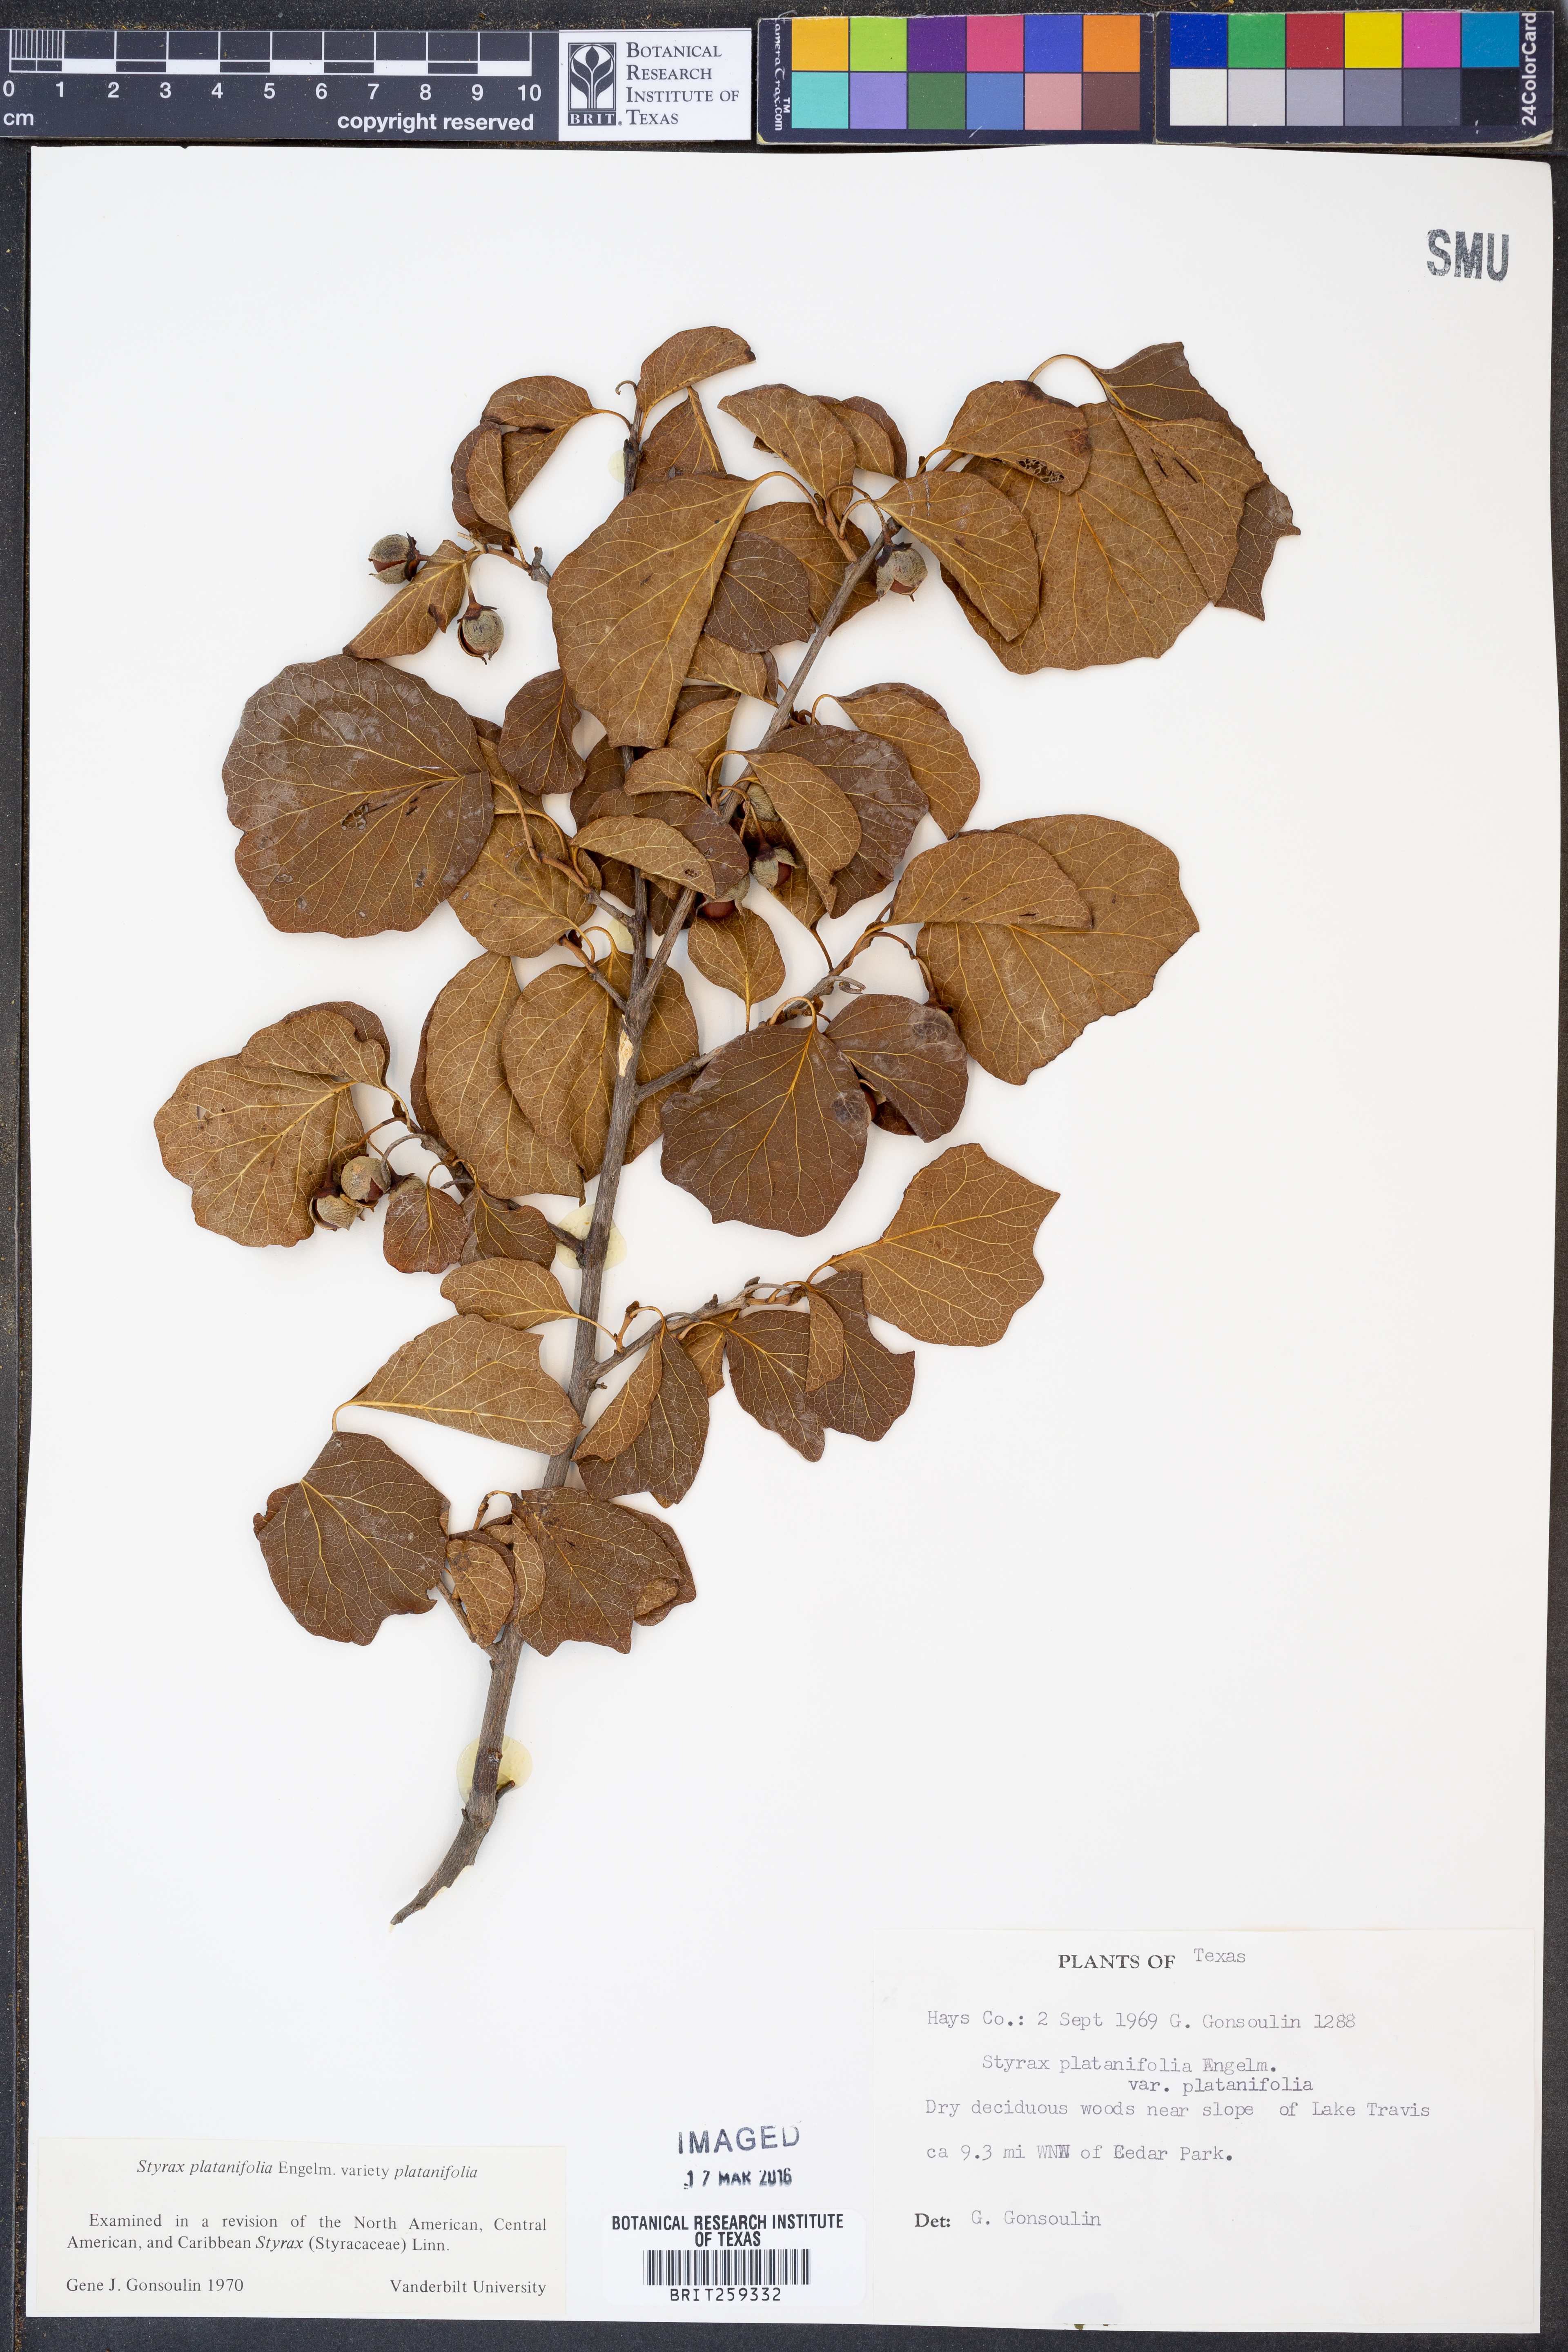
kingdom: Plantae
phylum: Tracheophyta
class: Magnoliopsida
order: Ericales
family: Styracaceae
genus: Styrax
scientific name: Styrax platanifolius
